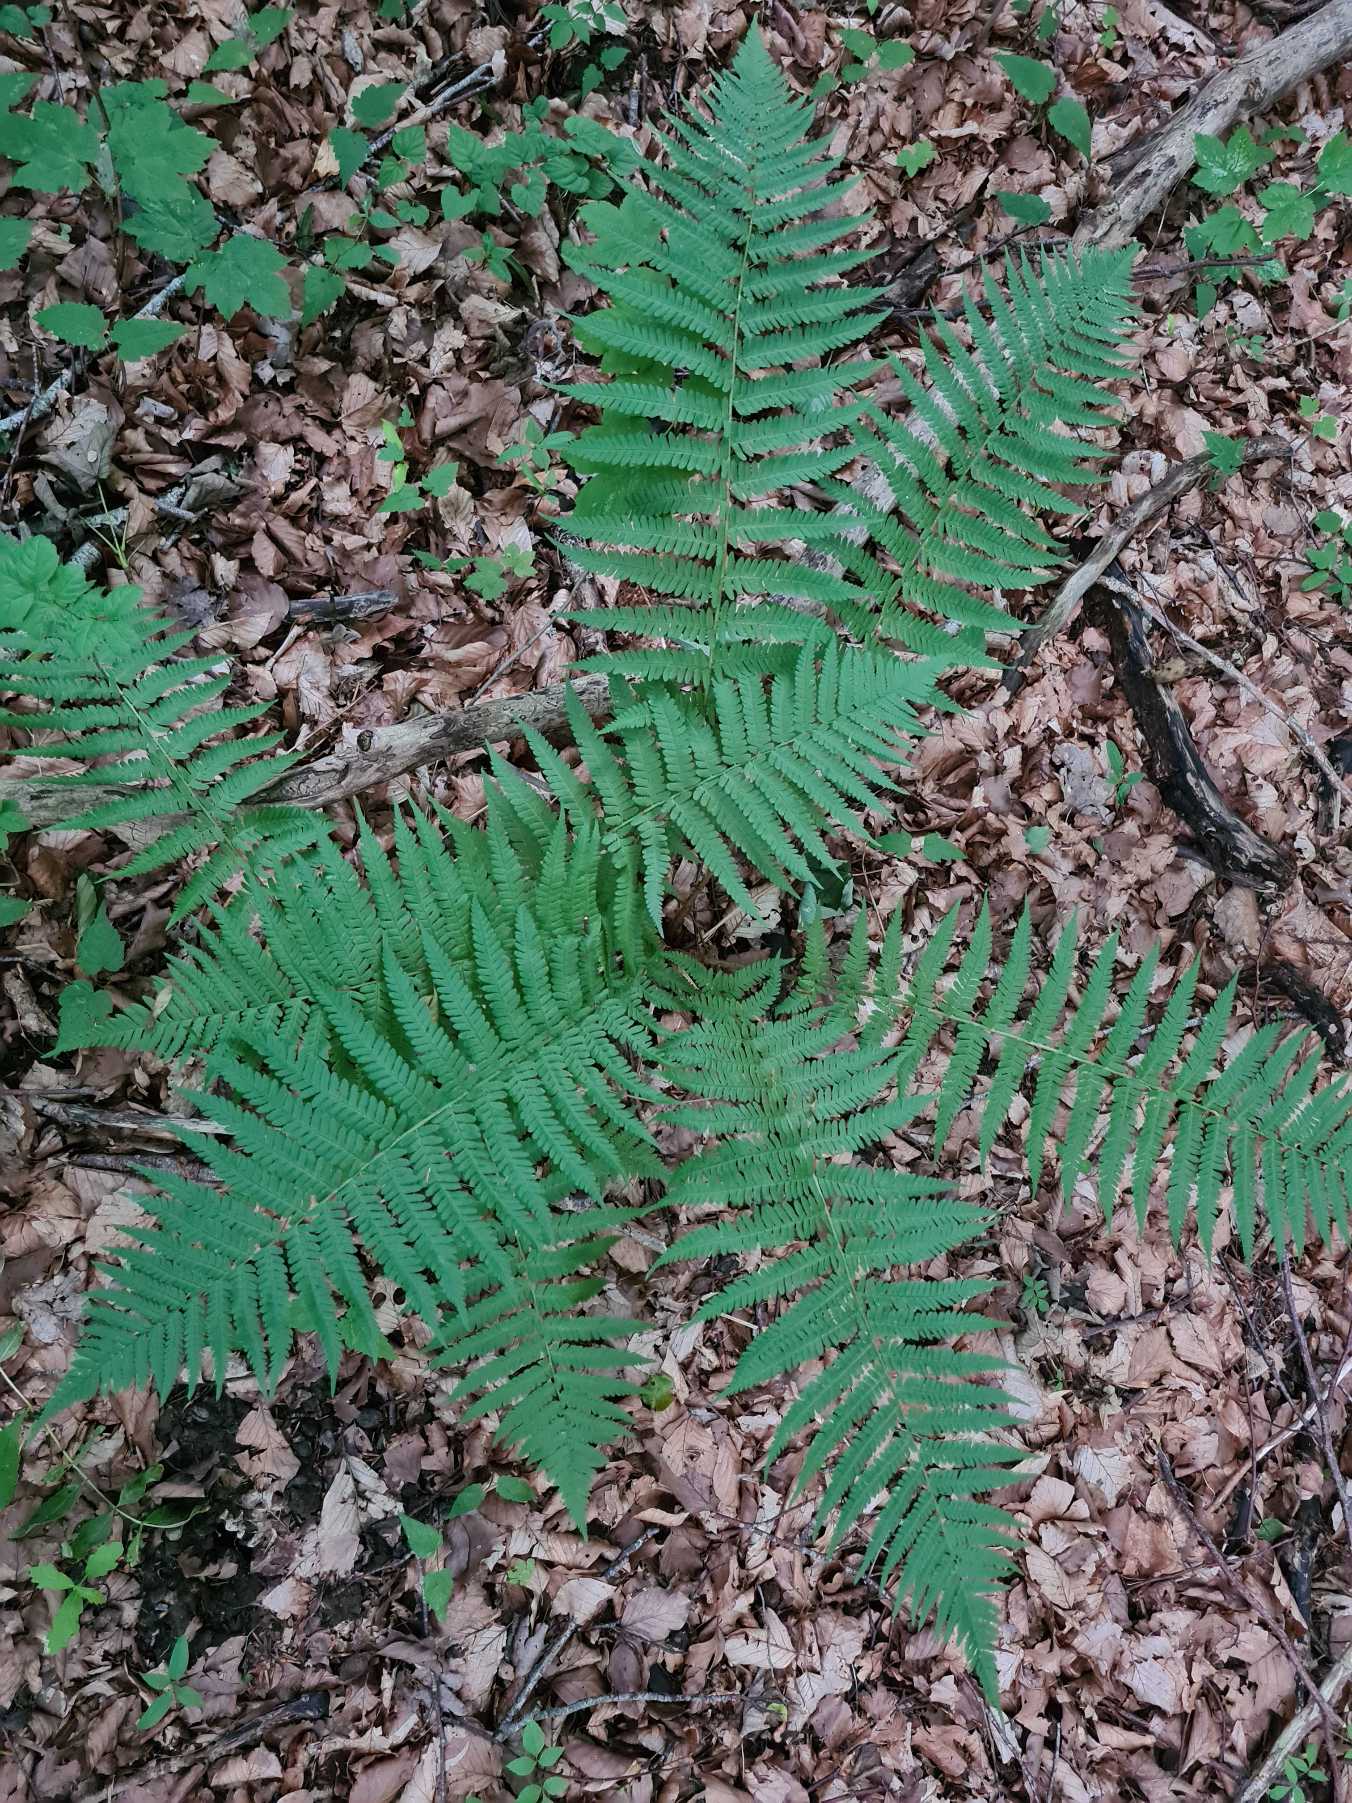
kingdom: Plantae
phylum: Tracheophyta
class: Polypodiopsida
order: Polypodiales
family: Dryopteridaceae
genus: Dryopteris
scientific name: Dryopteris filix-mas
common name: Almindelig mangeløv
